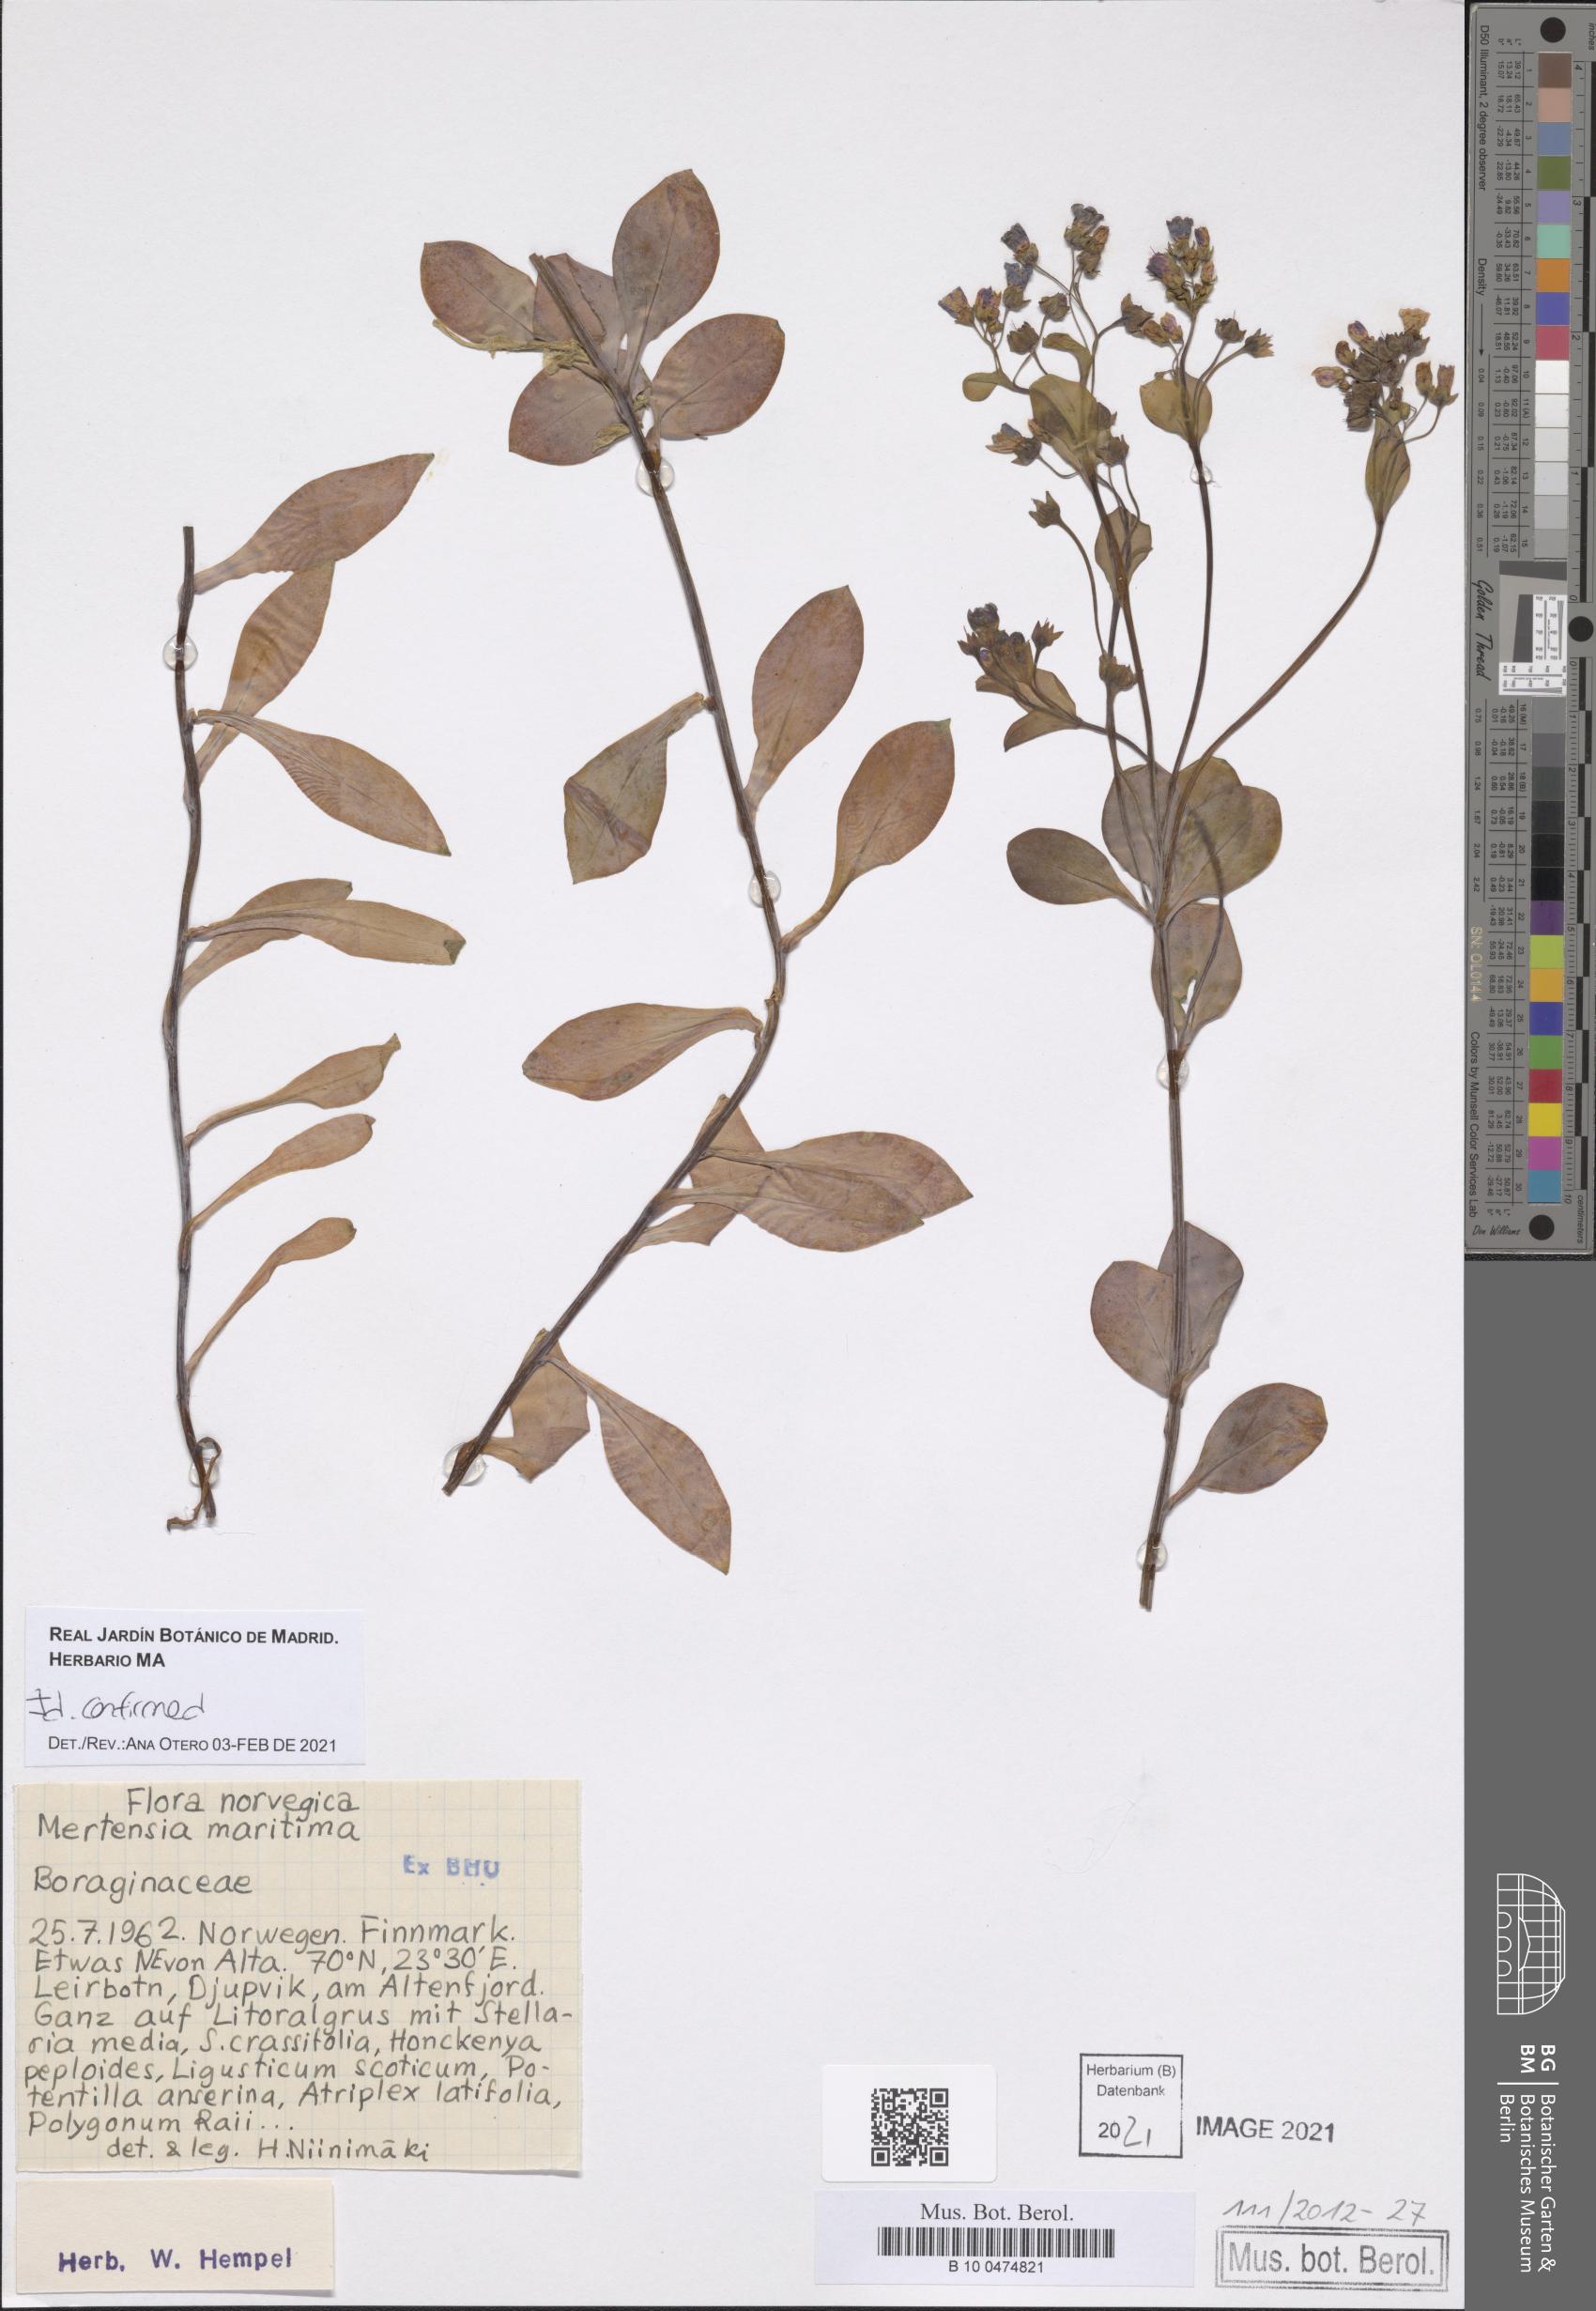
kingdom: Plantae
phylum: Tracheophyta
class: Magnoliopsida
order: Boraginales
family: Boraginaceae
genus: Mertensia
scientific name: Mertensia maritima
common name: Oysterplant
